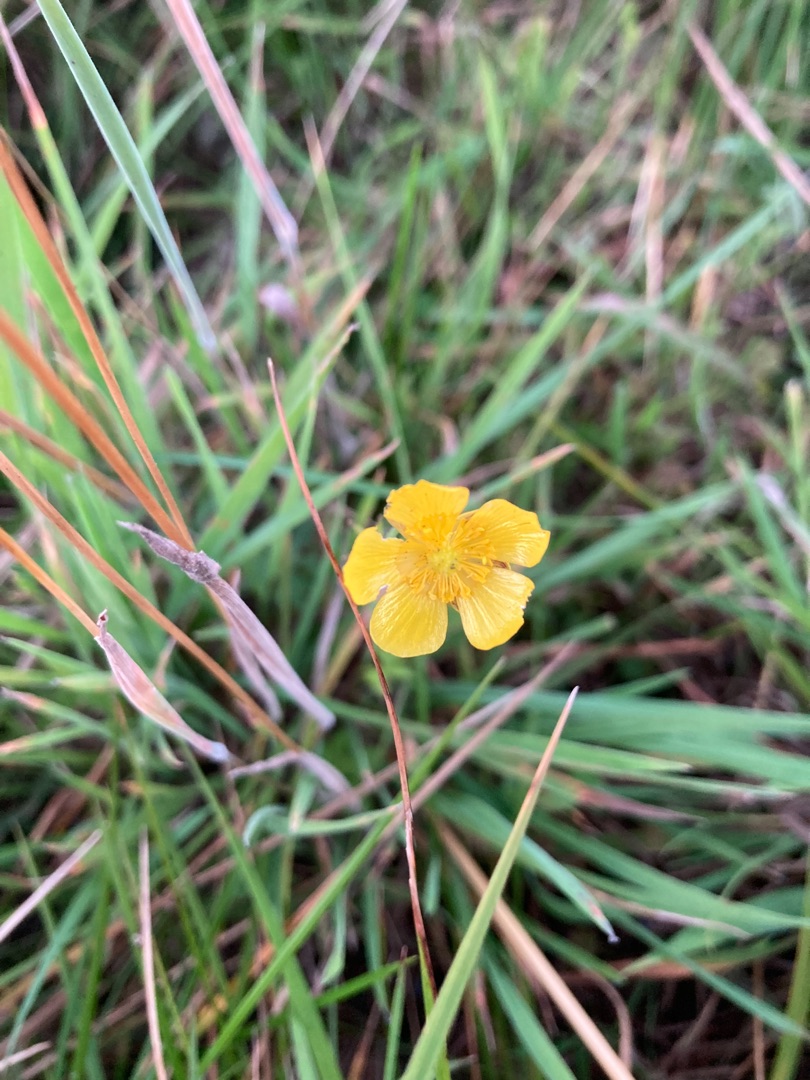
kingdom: Plantae
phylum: Tracheophyta
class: Magnoliopsida
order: Ranunculales
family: Ranunculaceae
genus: Ranunculus
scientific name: Ranunculus
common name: Ranunkelslægten
